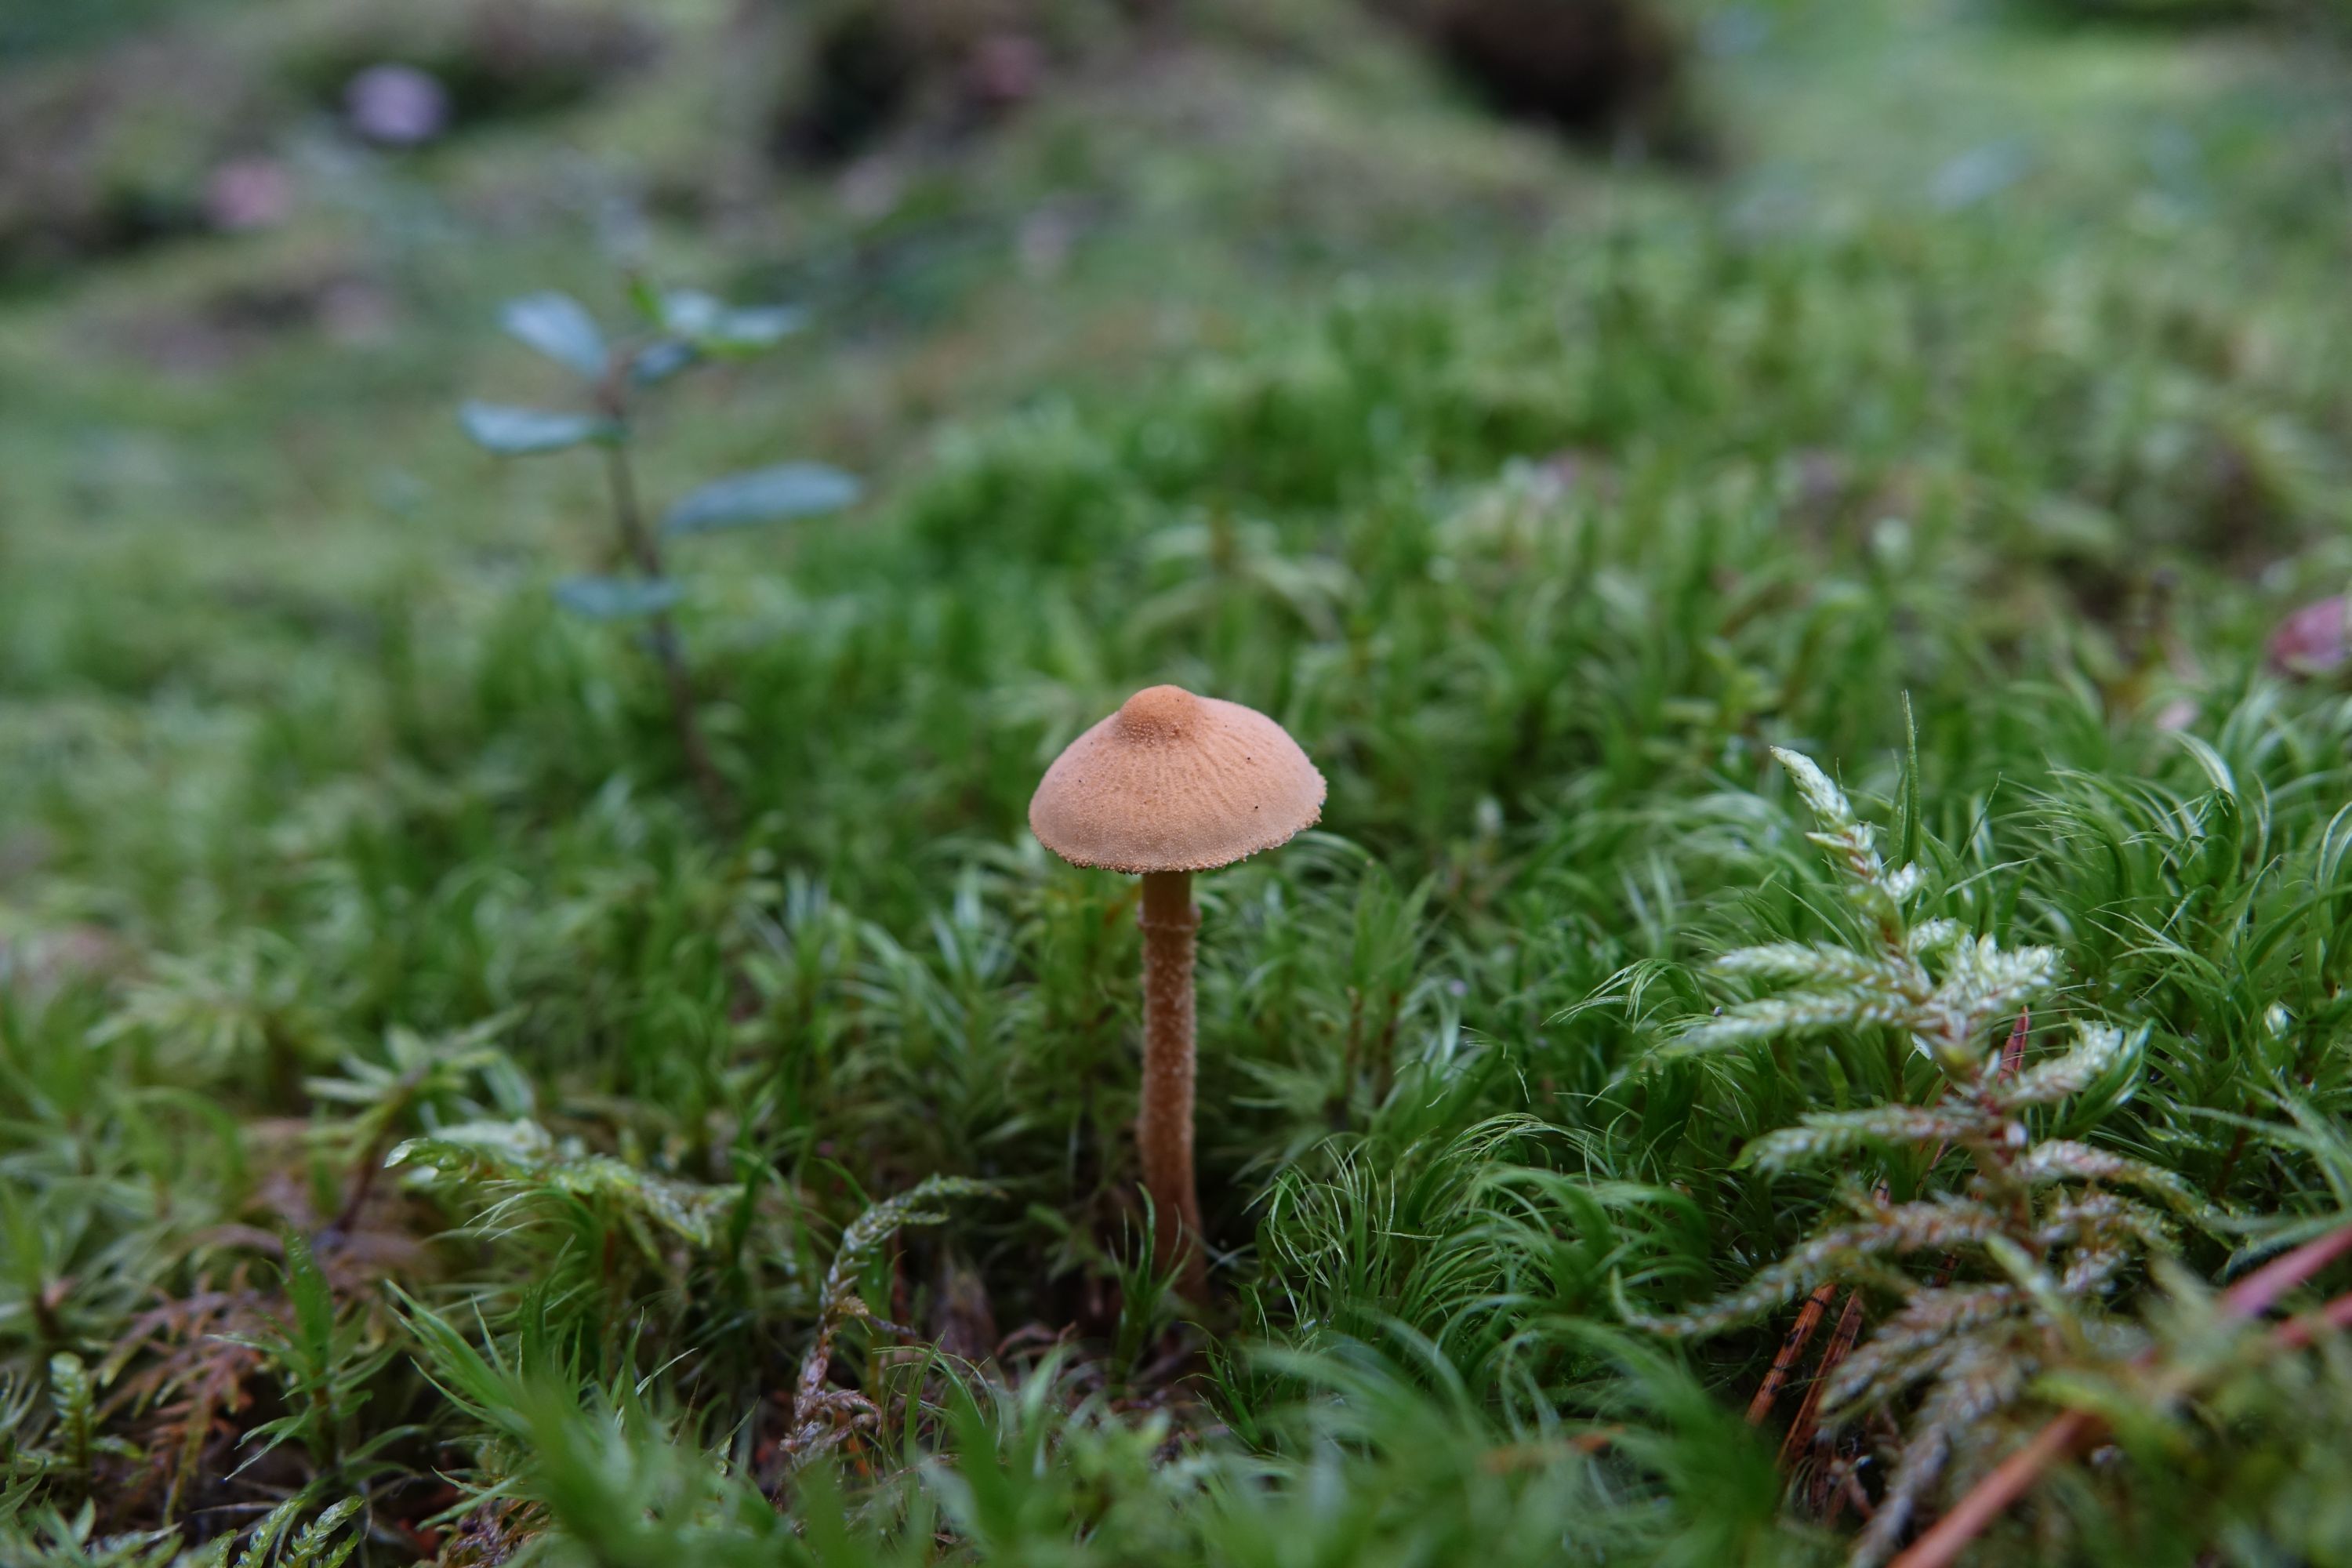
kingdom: Fungi
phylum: Basidiomycota
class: Agaricomycetes
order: Agaricales
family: Tricholomataceae
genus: Cystoderma
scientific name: Cystoderma amianthinum
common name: Earthy powdercap
